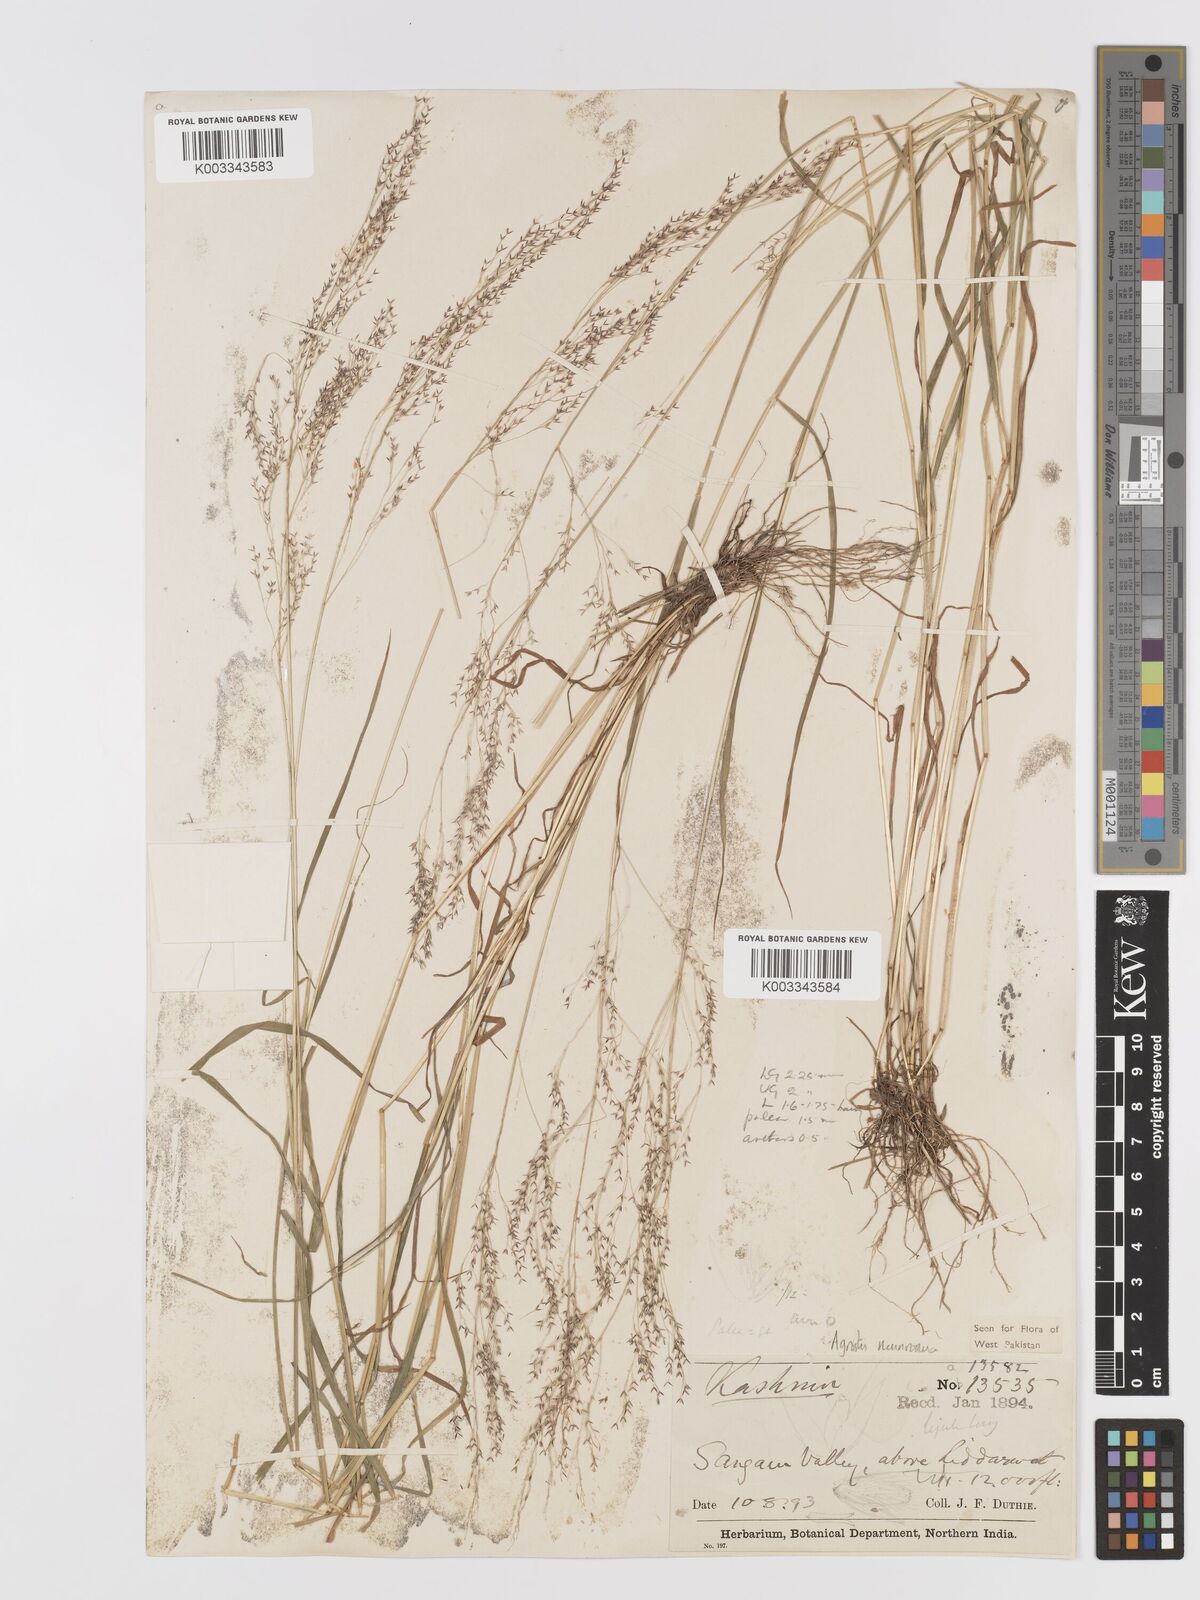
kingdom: Plantae
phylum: Tracheophyta
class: Liliopsida
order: Poales
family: Poaceae
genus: Agrostis
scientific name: Agrostis munroana
